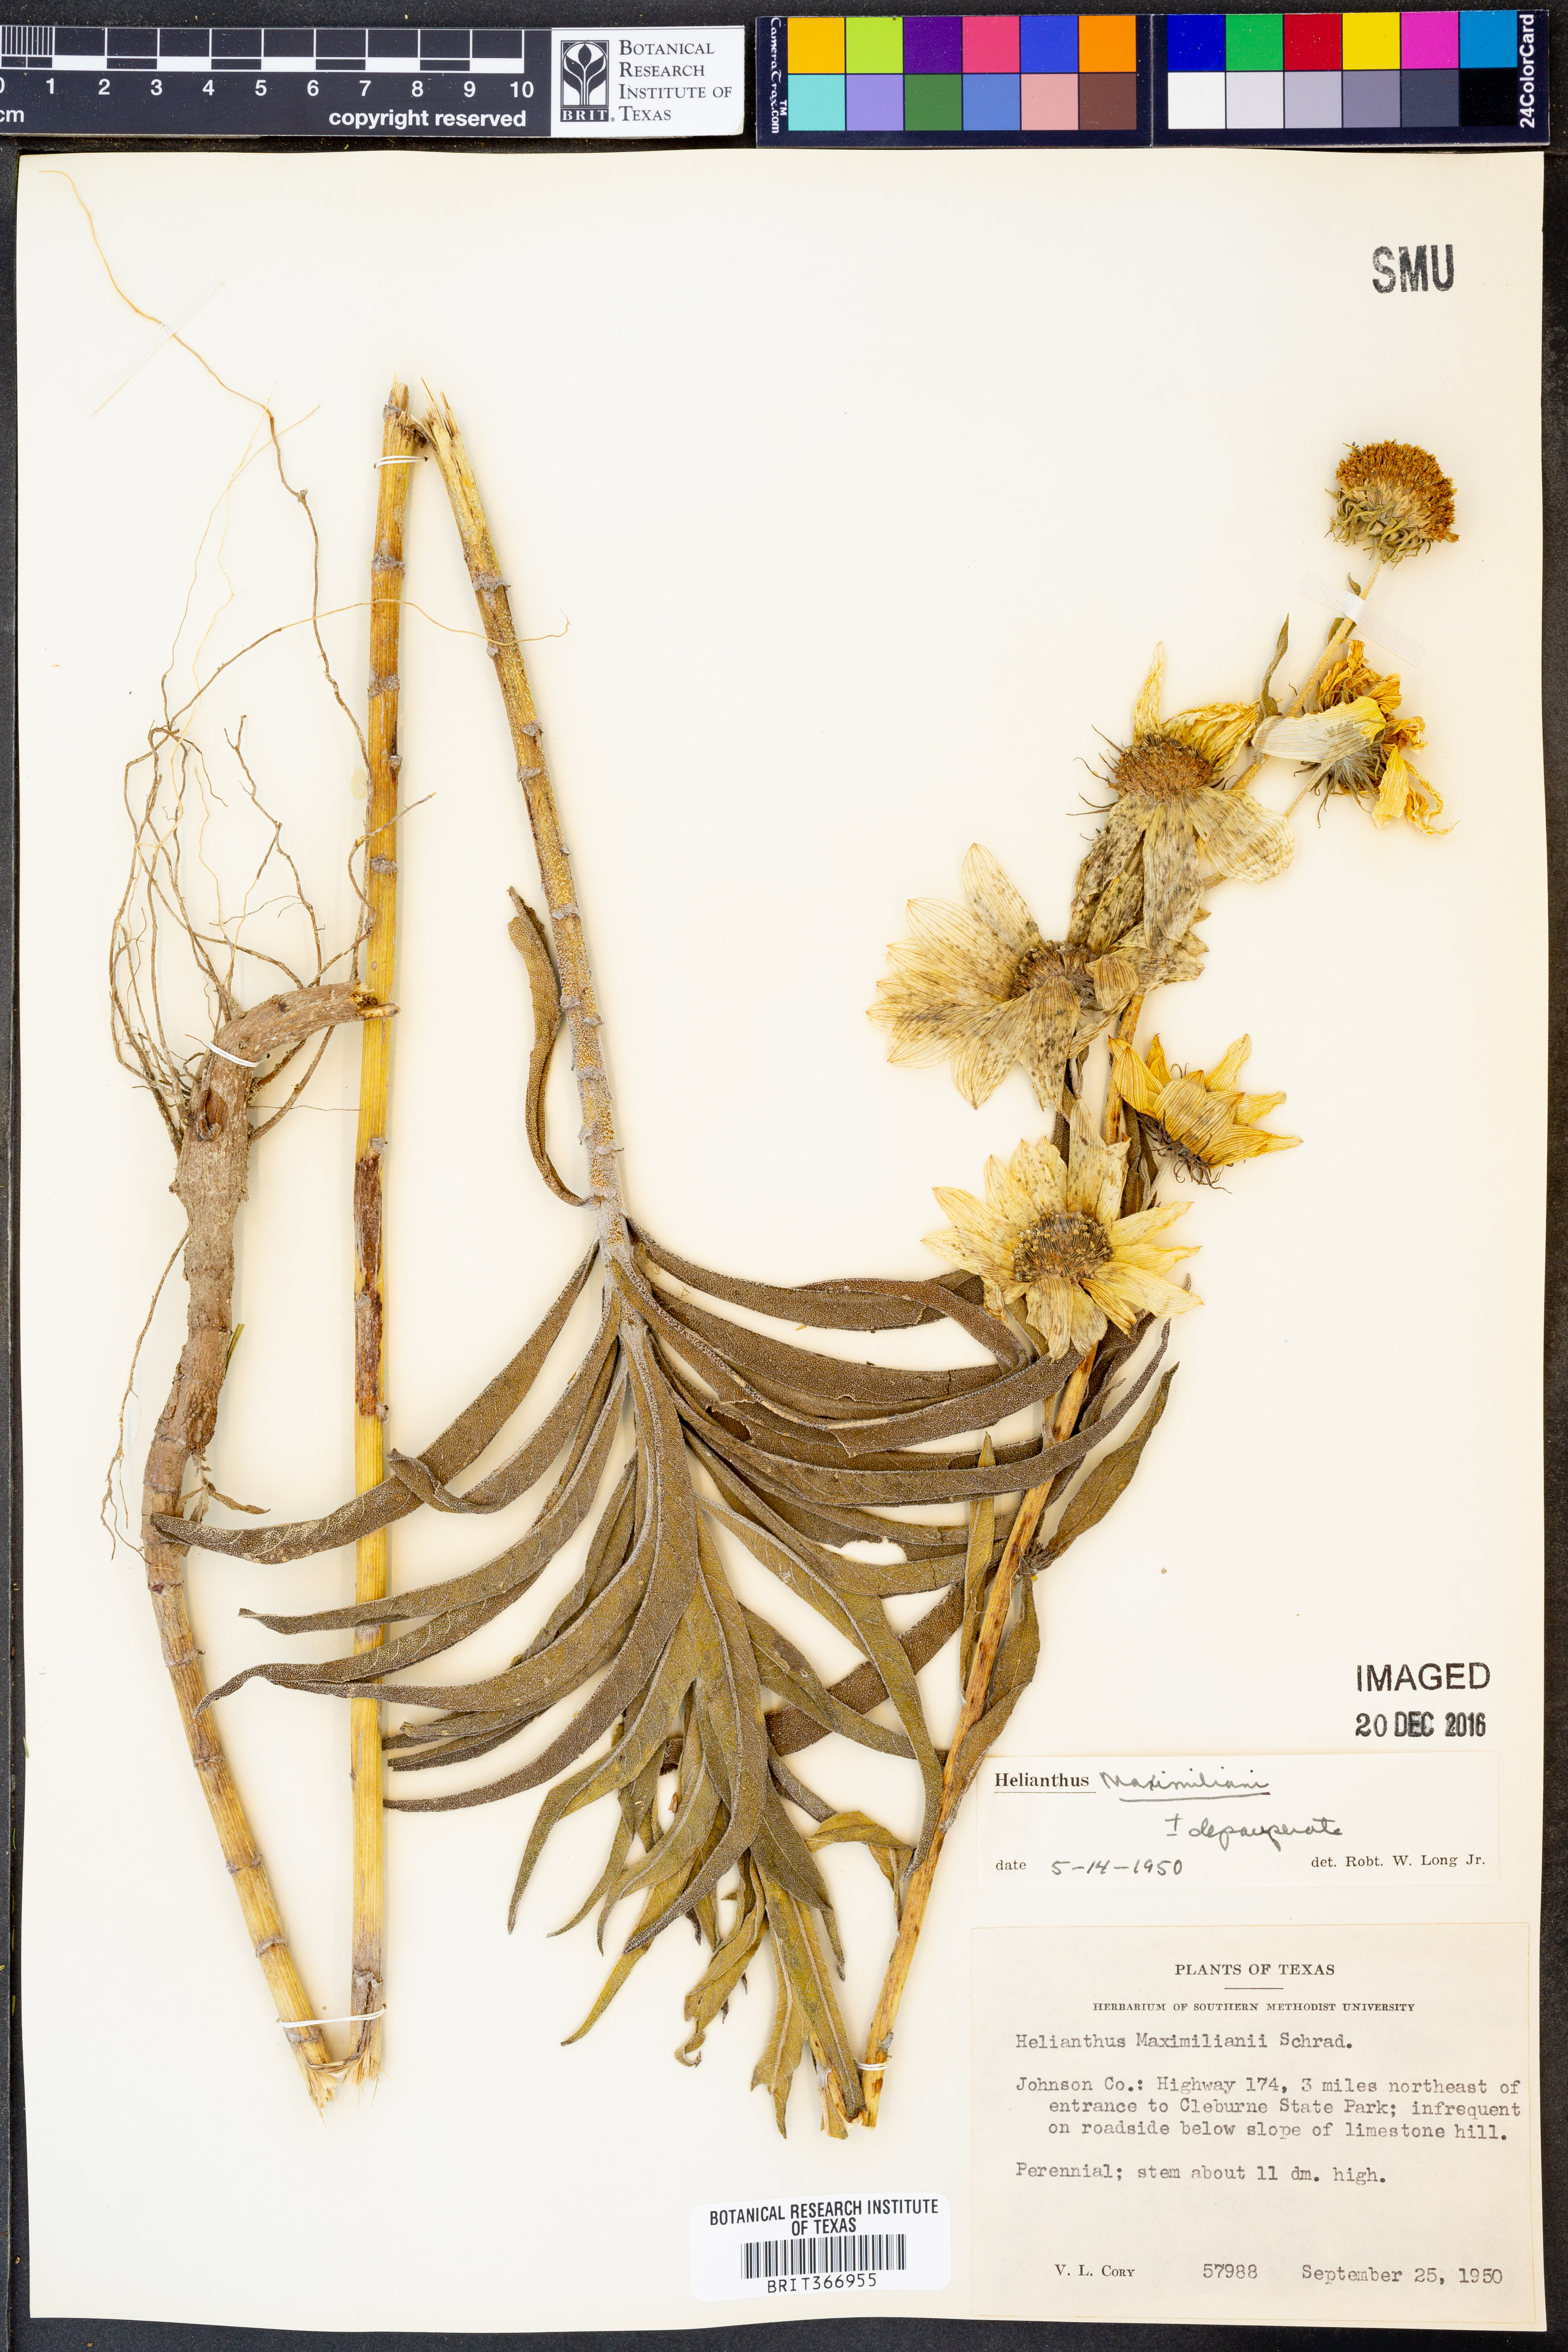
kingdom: Plantae
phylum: Tracheophyta
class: Magnoliopsida
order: Asterales
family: Asteraceae
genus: Helianthus
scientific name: Helianthus maximiliani
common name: Maximilian's sunflower
